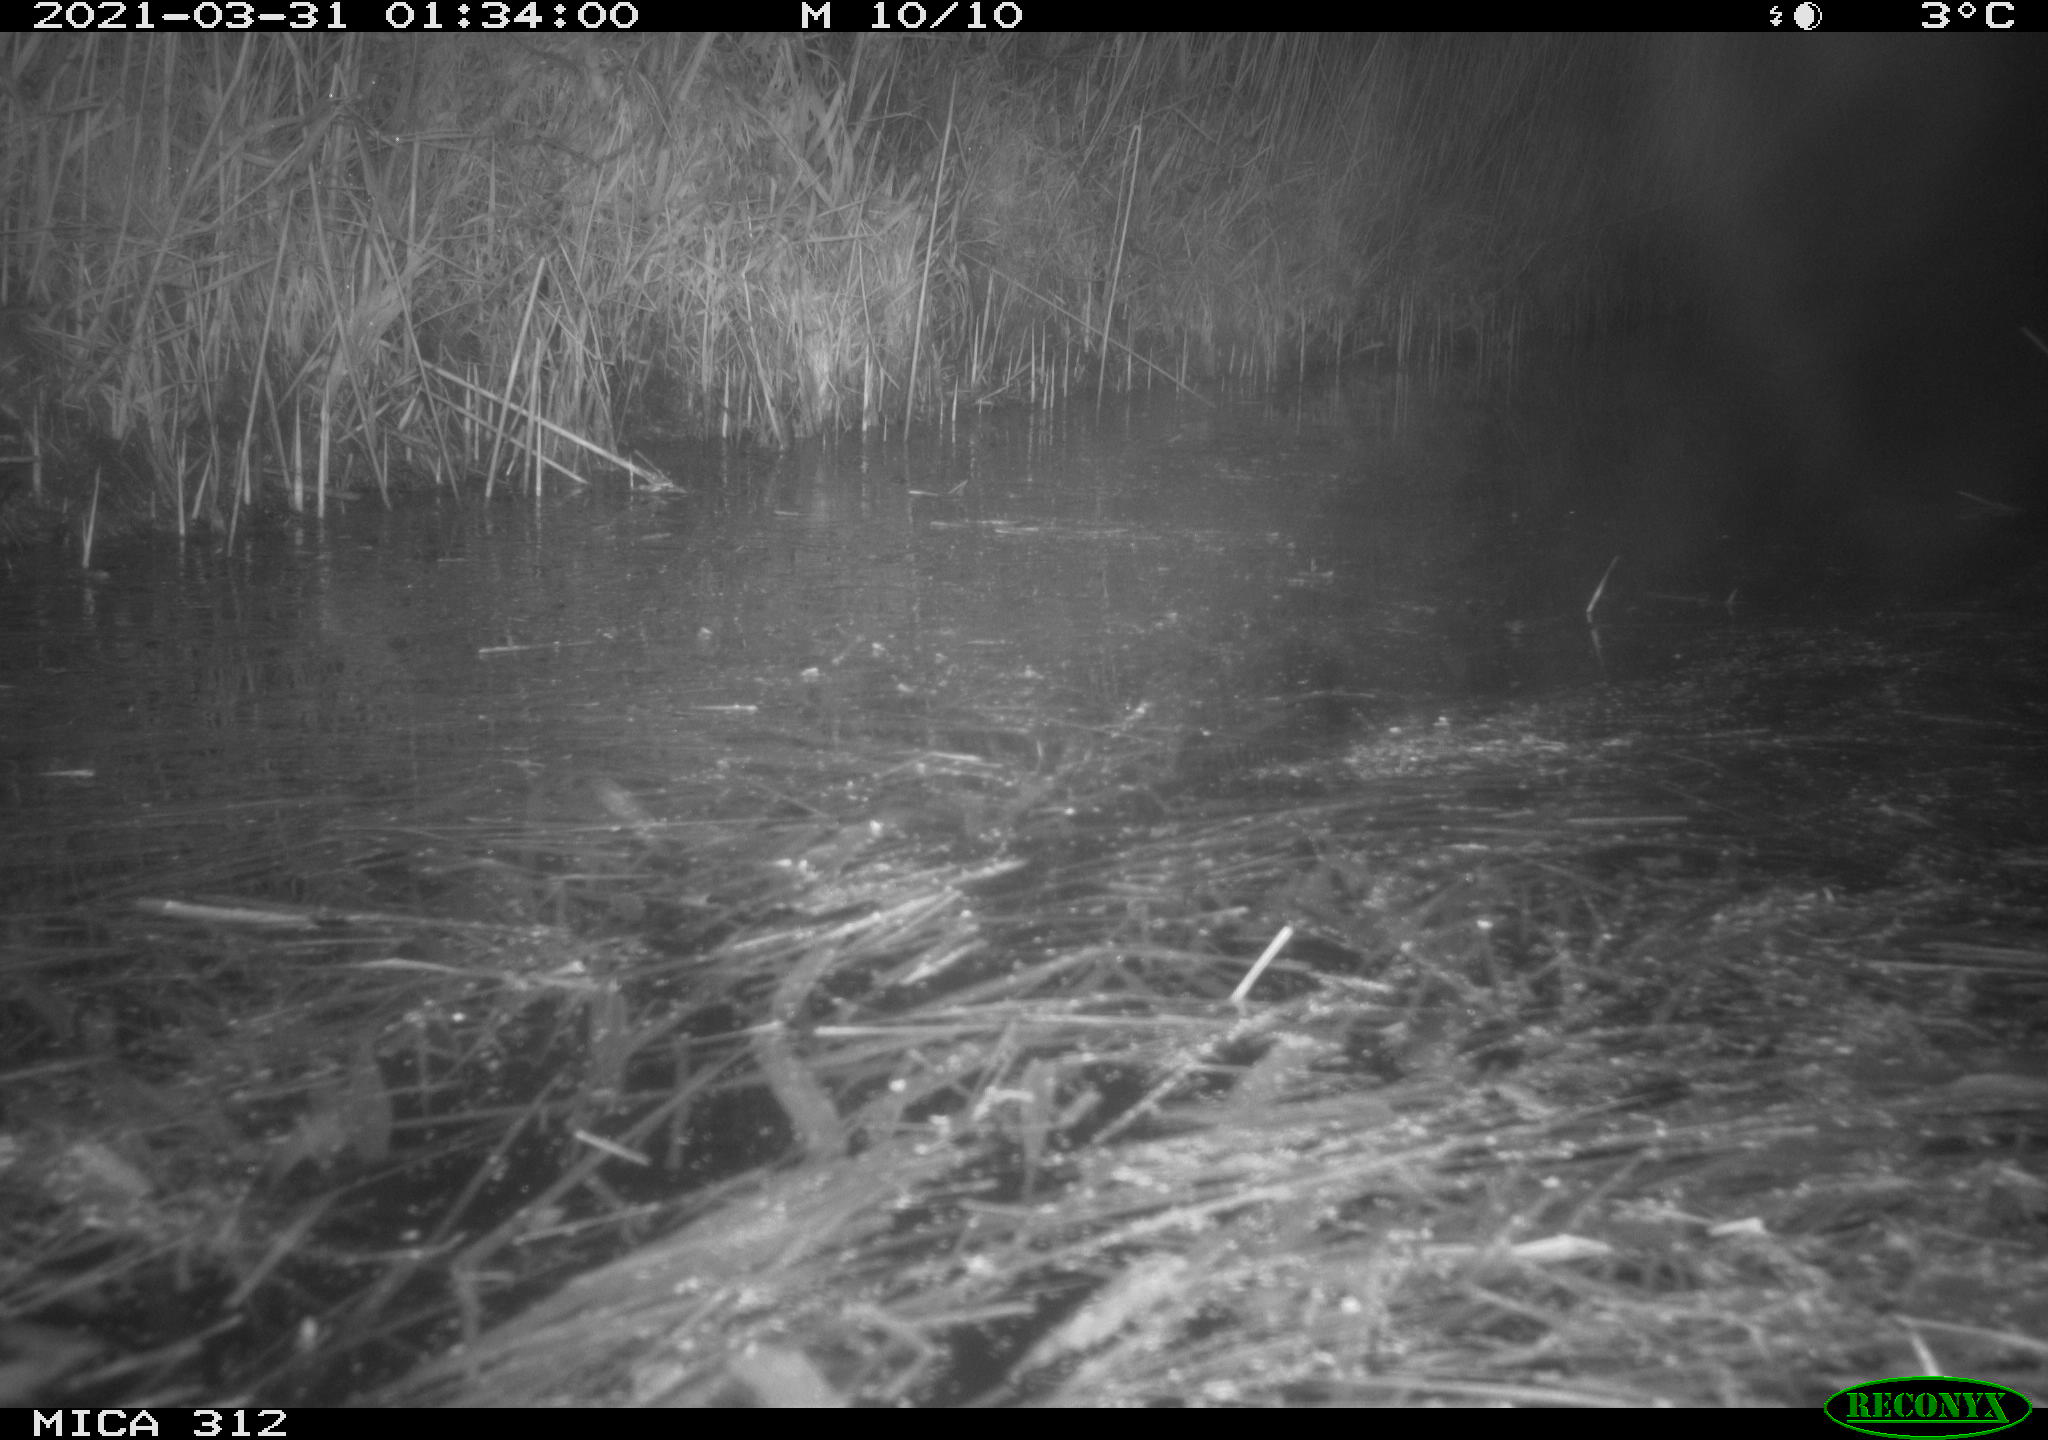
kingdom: Animalia
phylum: Chordata
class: Aves
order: Gruiformes
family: Rallidae
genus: Fulica
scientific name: Fulica atra
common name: Eurasian coot
